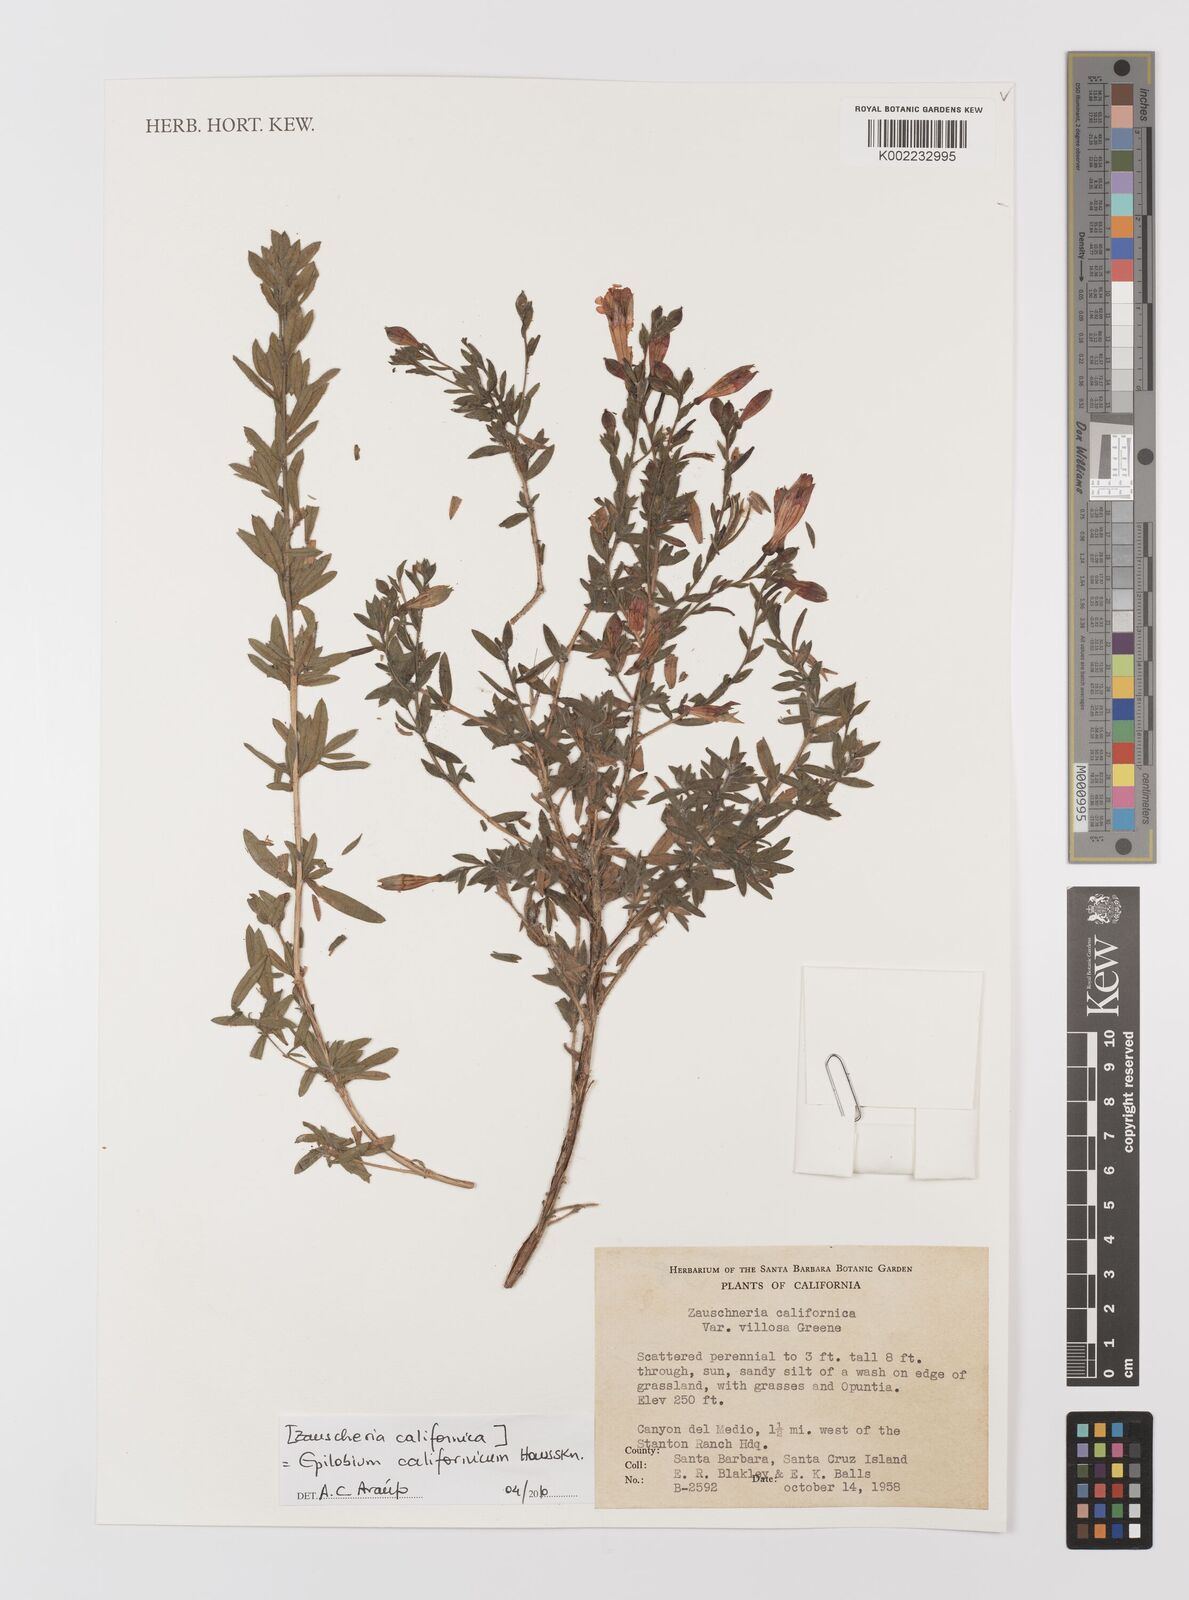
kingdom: Plantae
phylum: Tracheophyta
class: Magnoliopsida
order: Myrtales
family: Onagraceae
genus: Epilobium
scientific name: Epilobium ciliatum
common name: American willowherb
